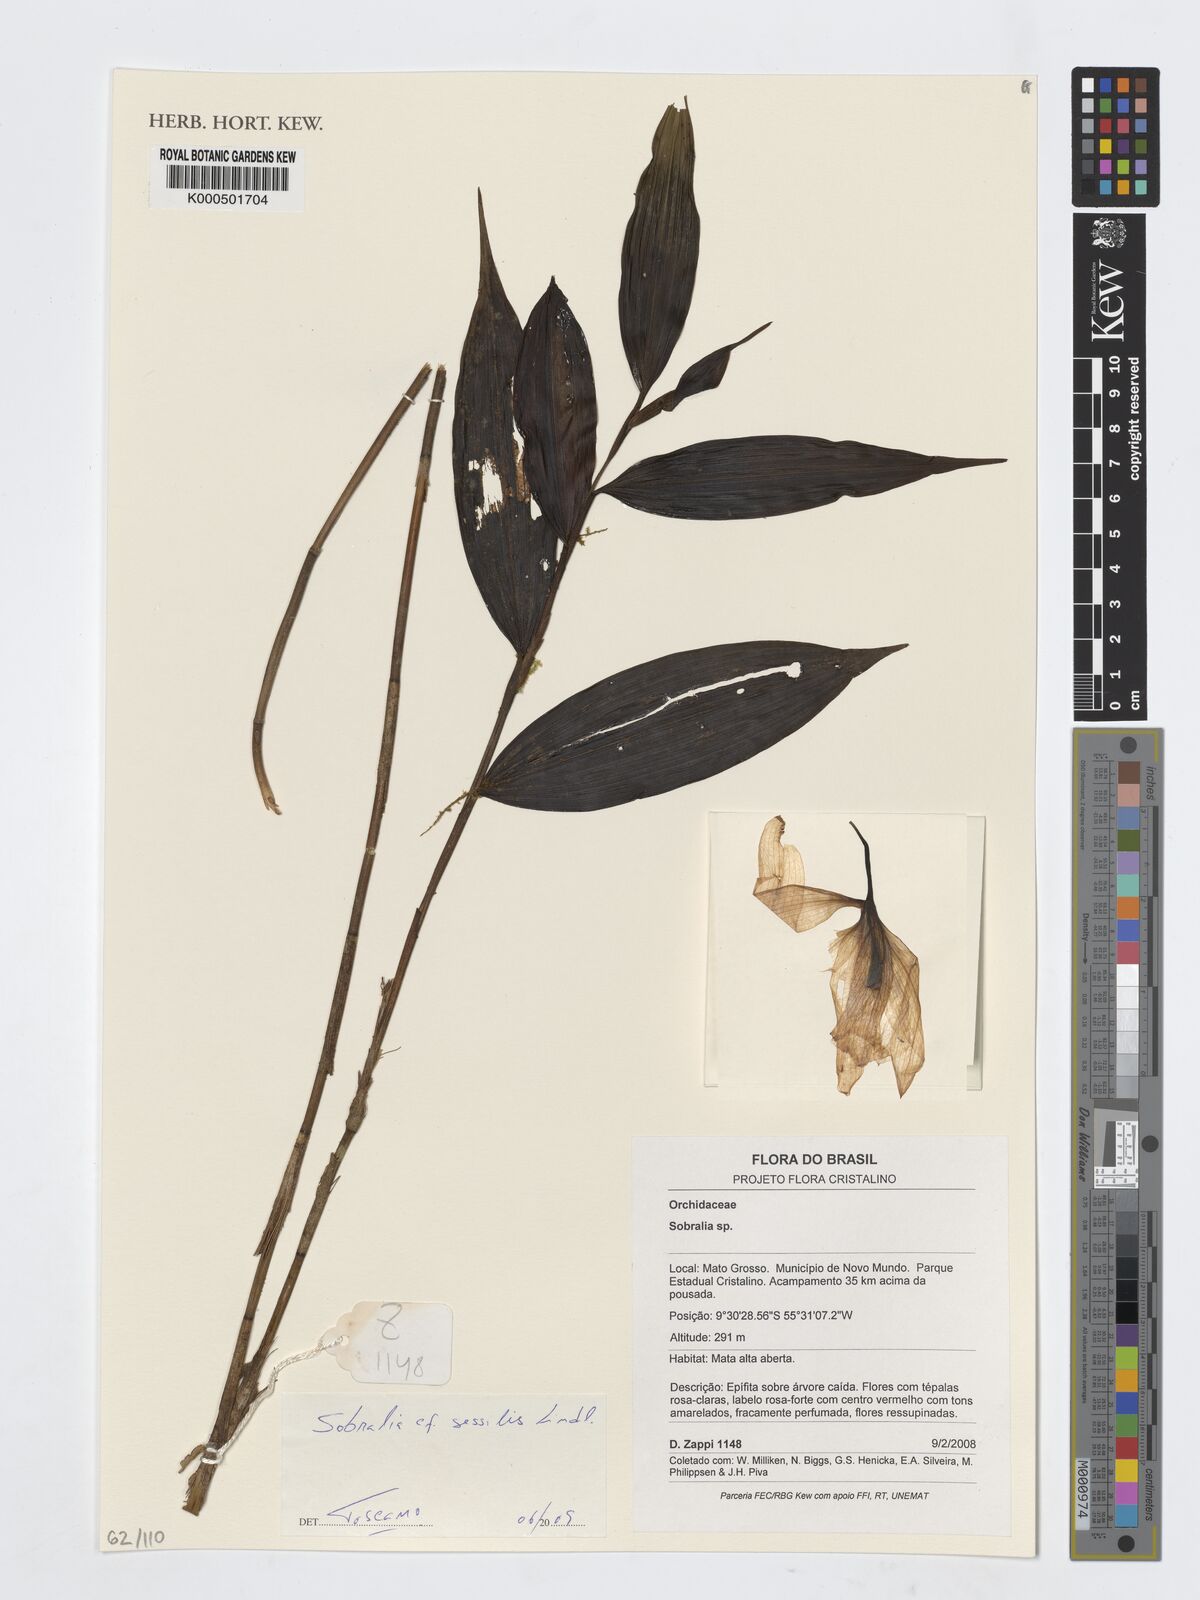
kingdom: Plantae
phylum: Tracheophyta
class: Liliopsida
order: Asparagales
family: Orchidaceae
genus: Sobralia
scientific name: Sobralia sessilis
